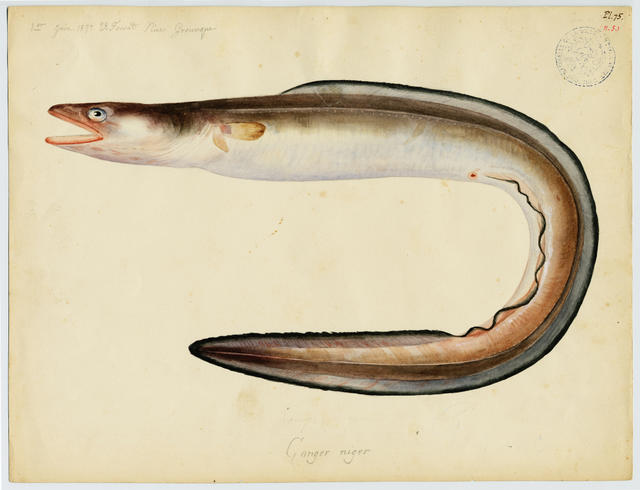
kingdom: Animalia
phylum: Chordata
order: Anguilliformes
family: Congridae
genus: Conger
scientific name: Conger conger
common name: Conger eel
